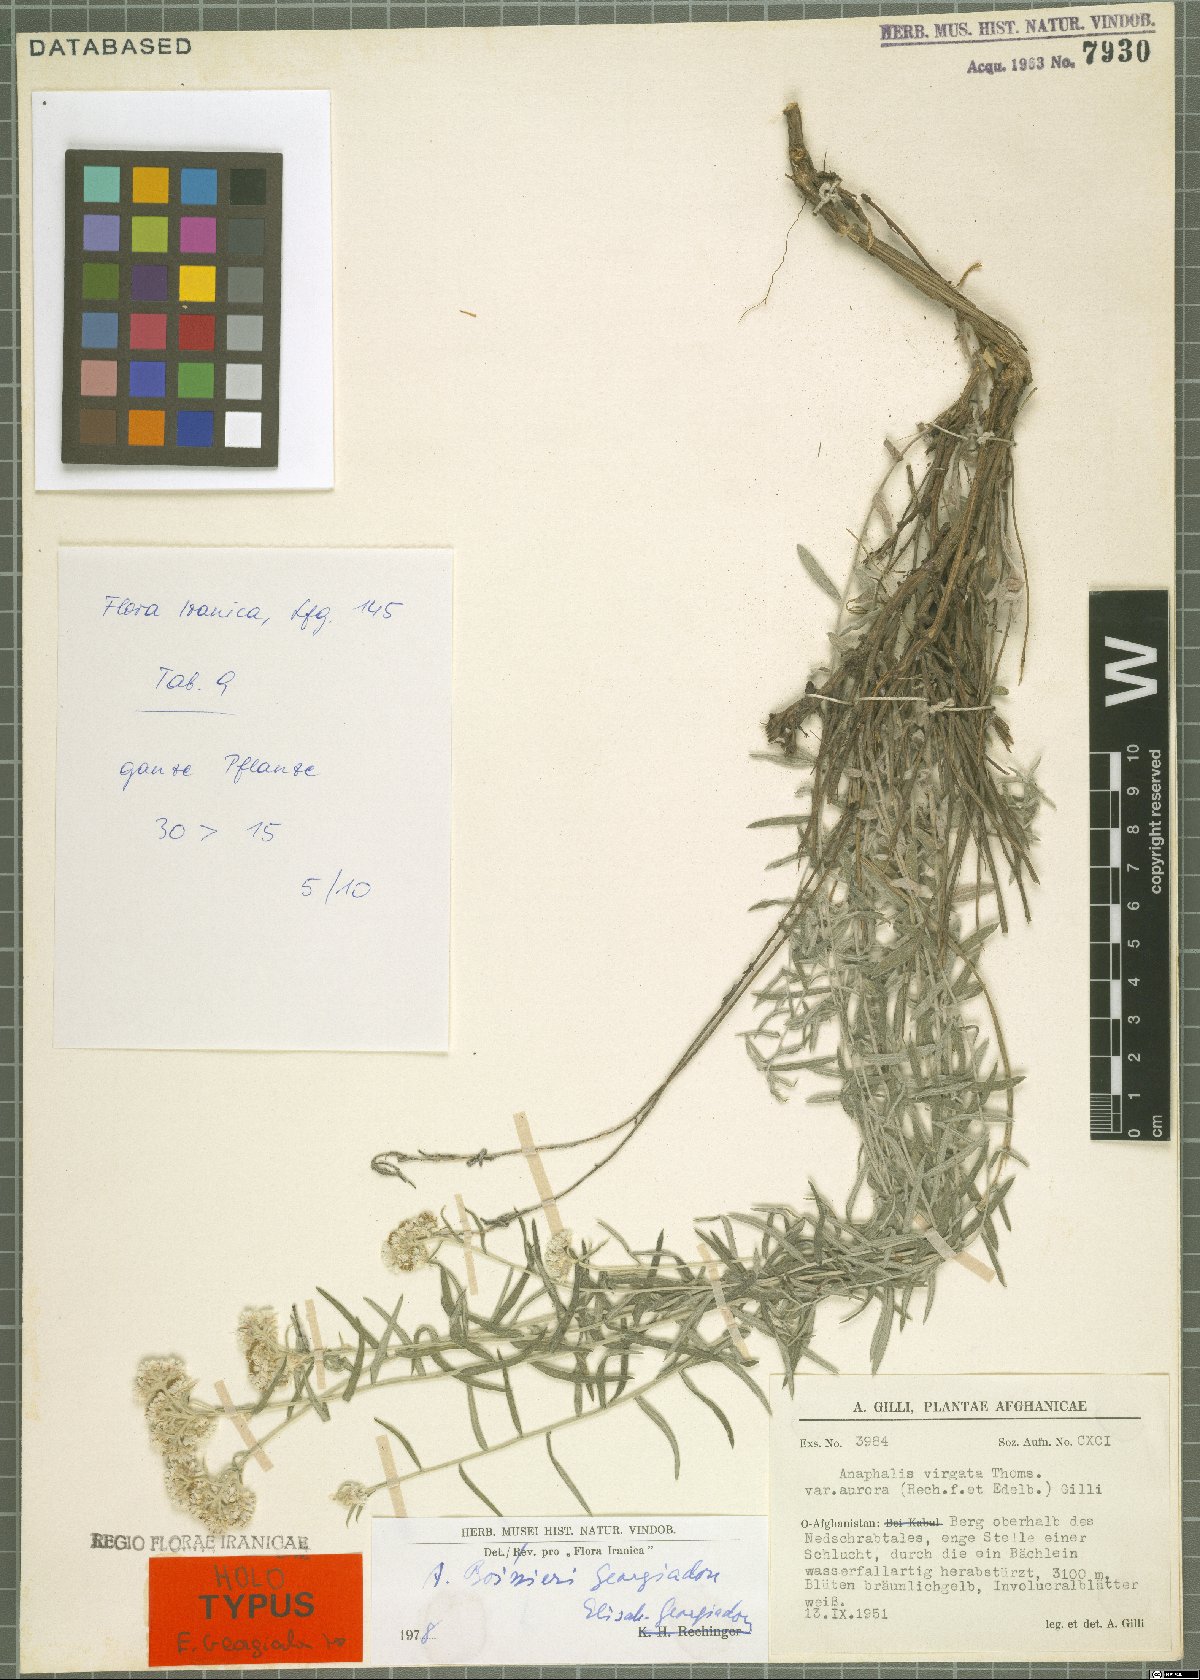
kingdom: Plantae
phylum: Tracheophyta
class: Magnoliopsida
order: Asterales
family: Asteraceae
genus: Anaphalis
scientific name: Anaphalis boissieri
